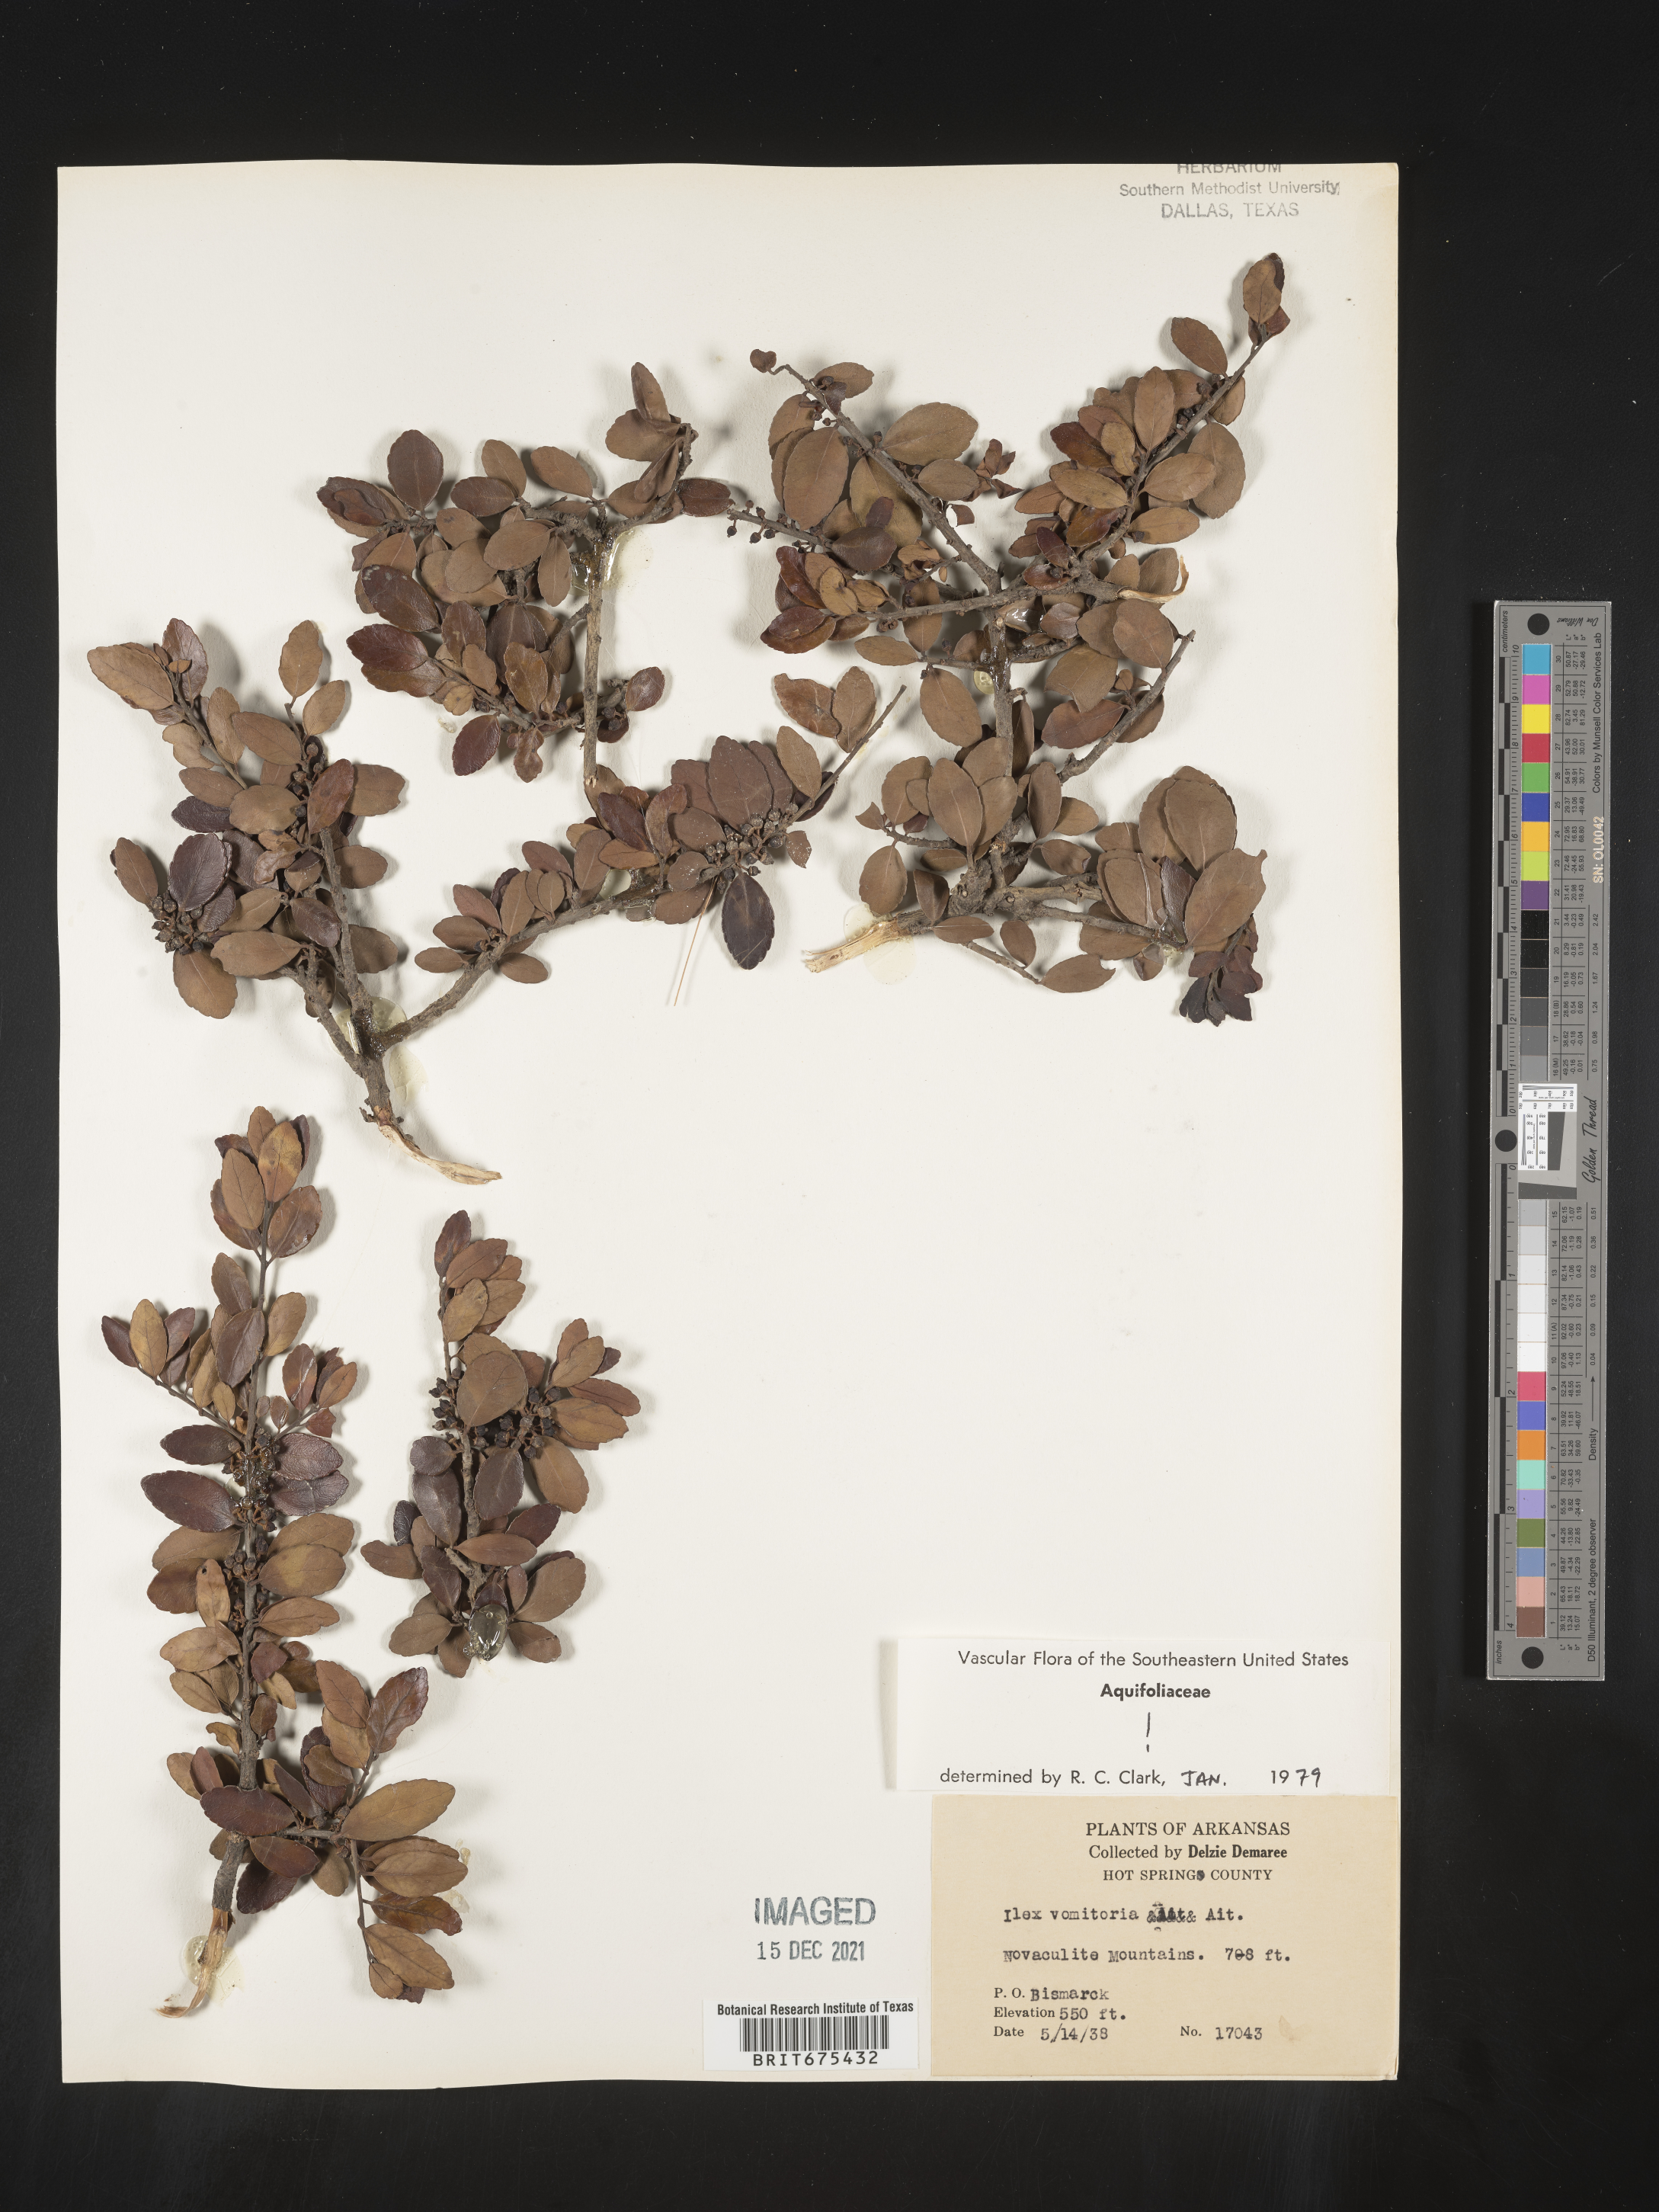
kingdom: Plantae
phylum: Tracheophyta
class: Magnoliopsida
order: Aquifoliales
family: Aquifoliaceae
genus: Ilex
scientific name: Ilex vomitoria
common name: Yaupon holly
